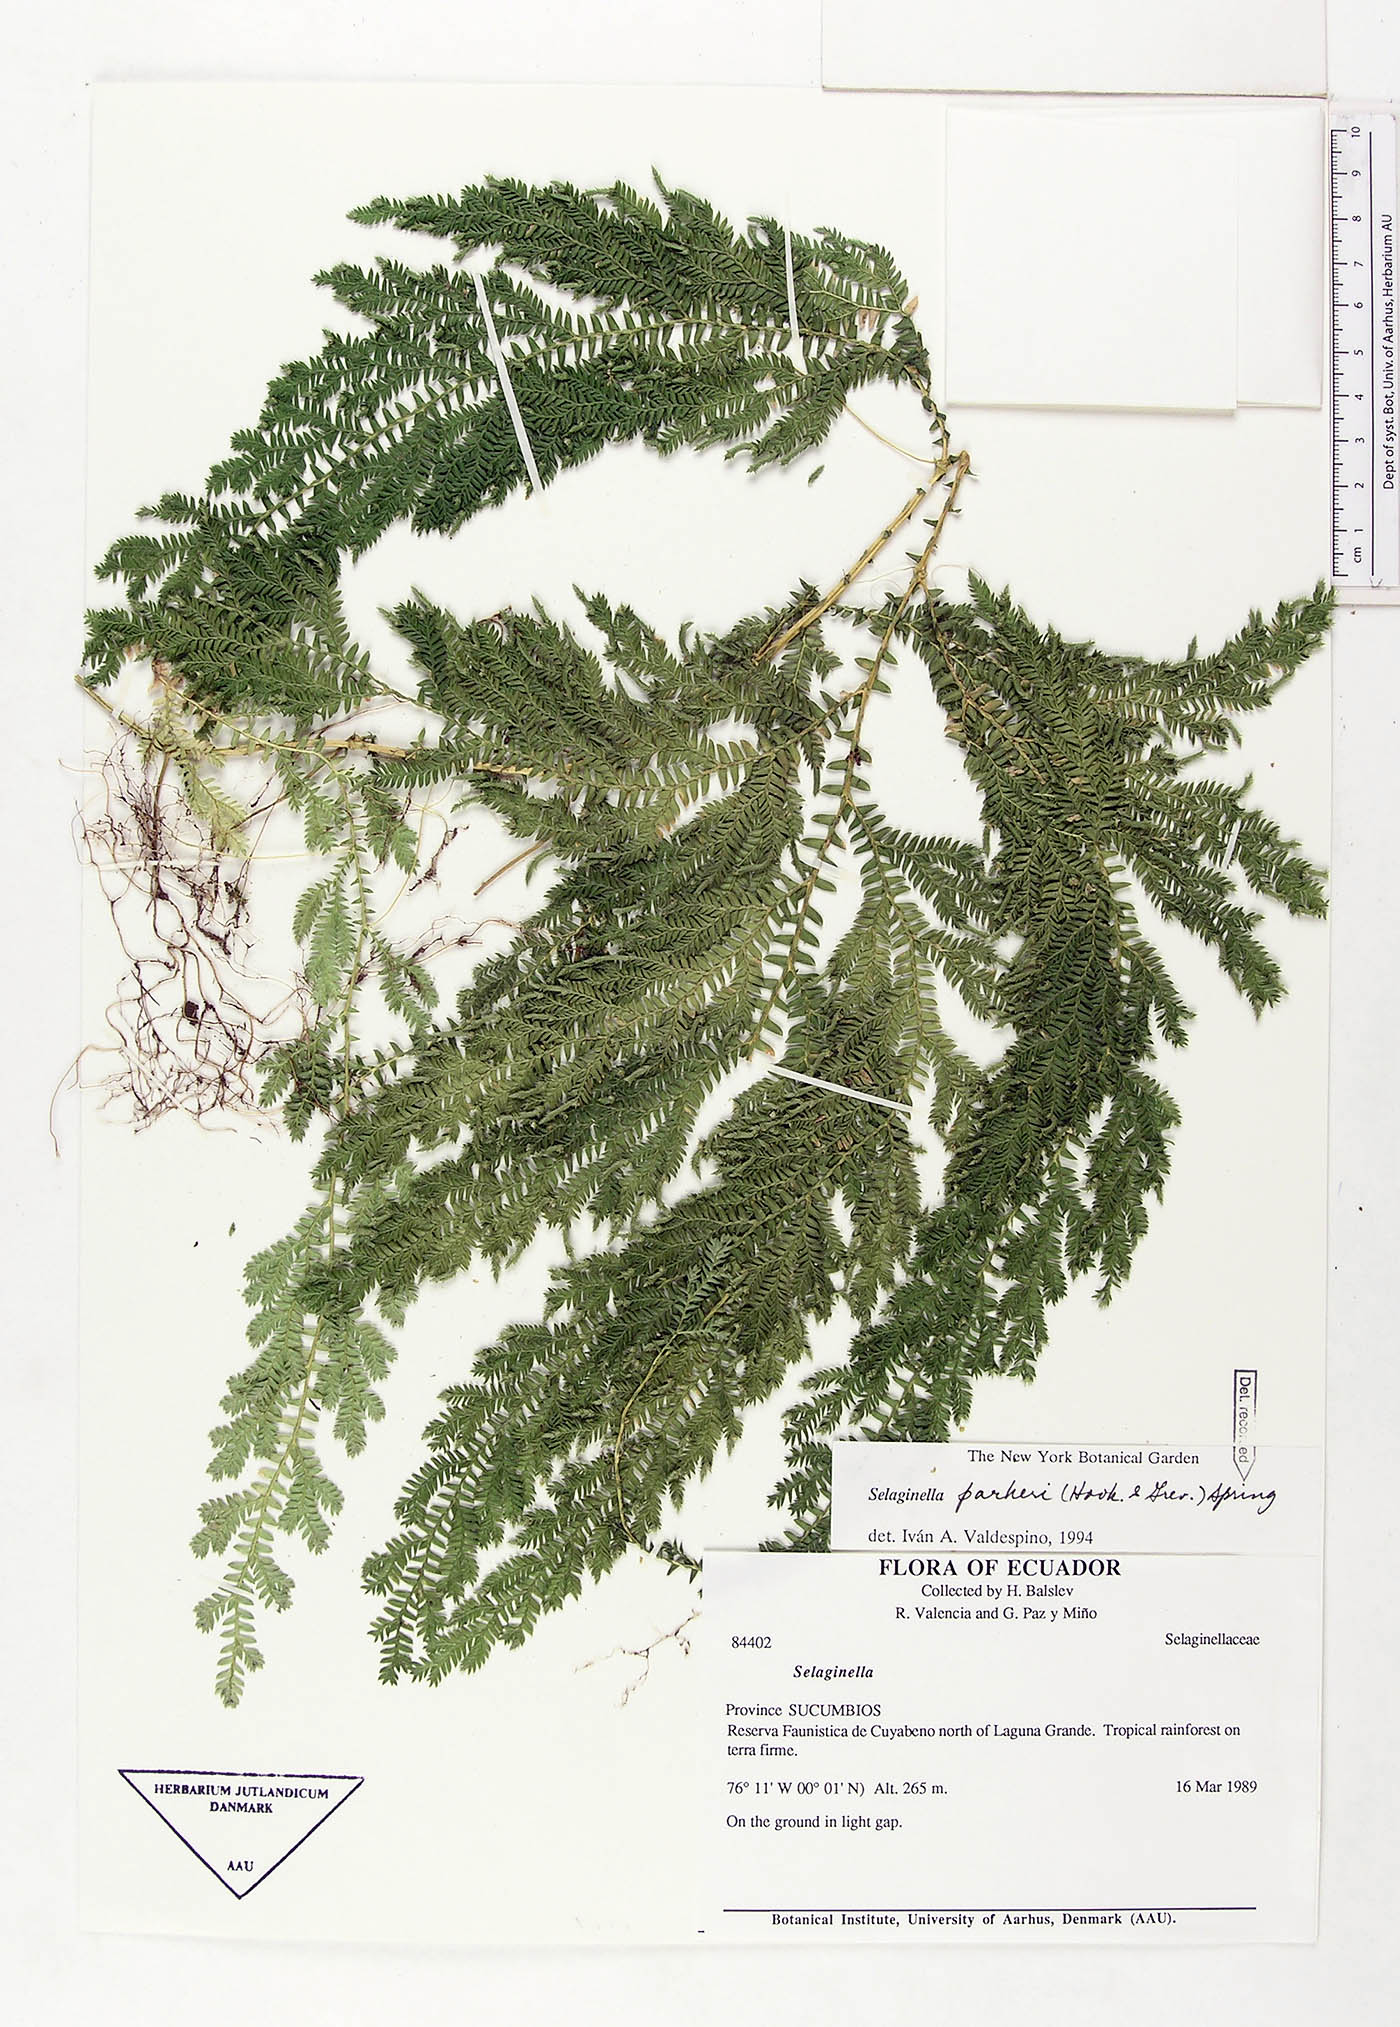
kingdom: Plantae
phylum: Tracheophyta
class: Lycopodiopsida
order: Selaginellales
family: Selaginellaceae
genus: Selaginella
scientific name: Selaginella parkeri
